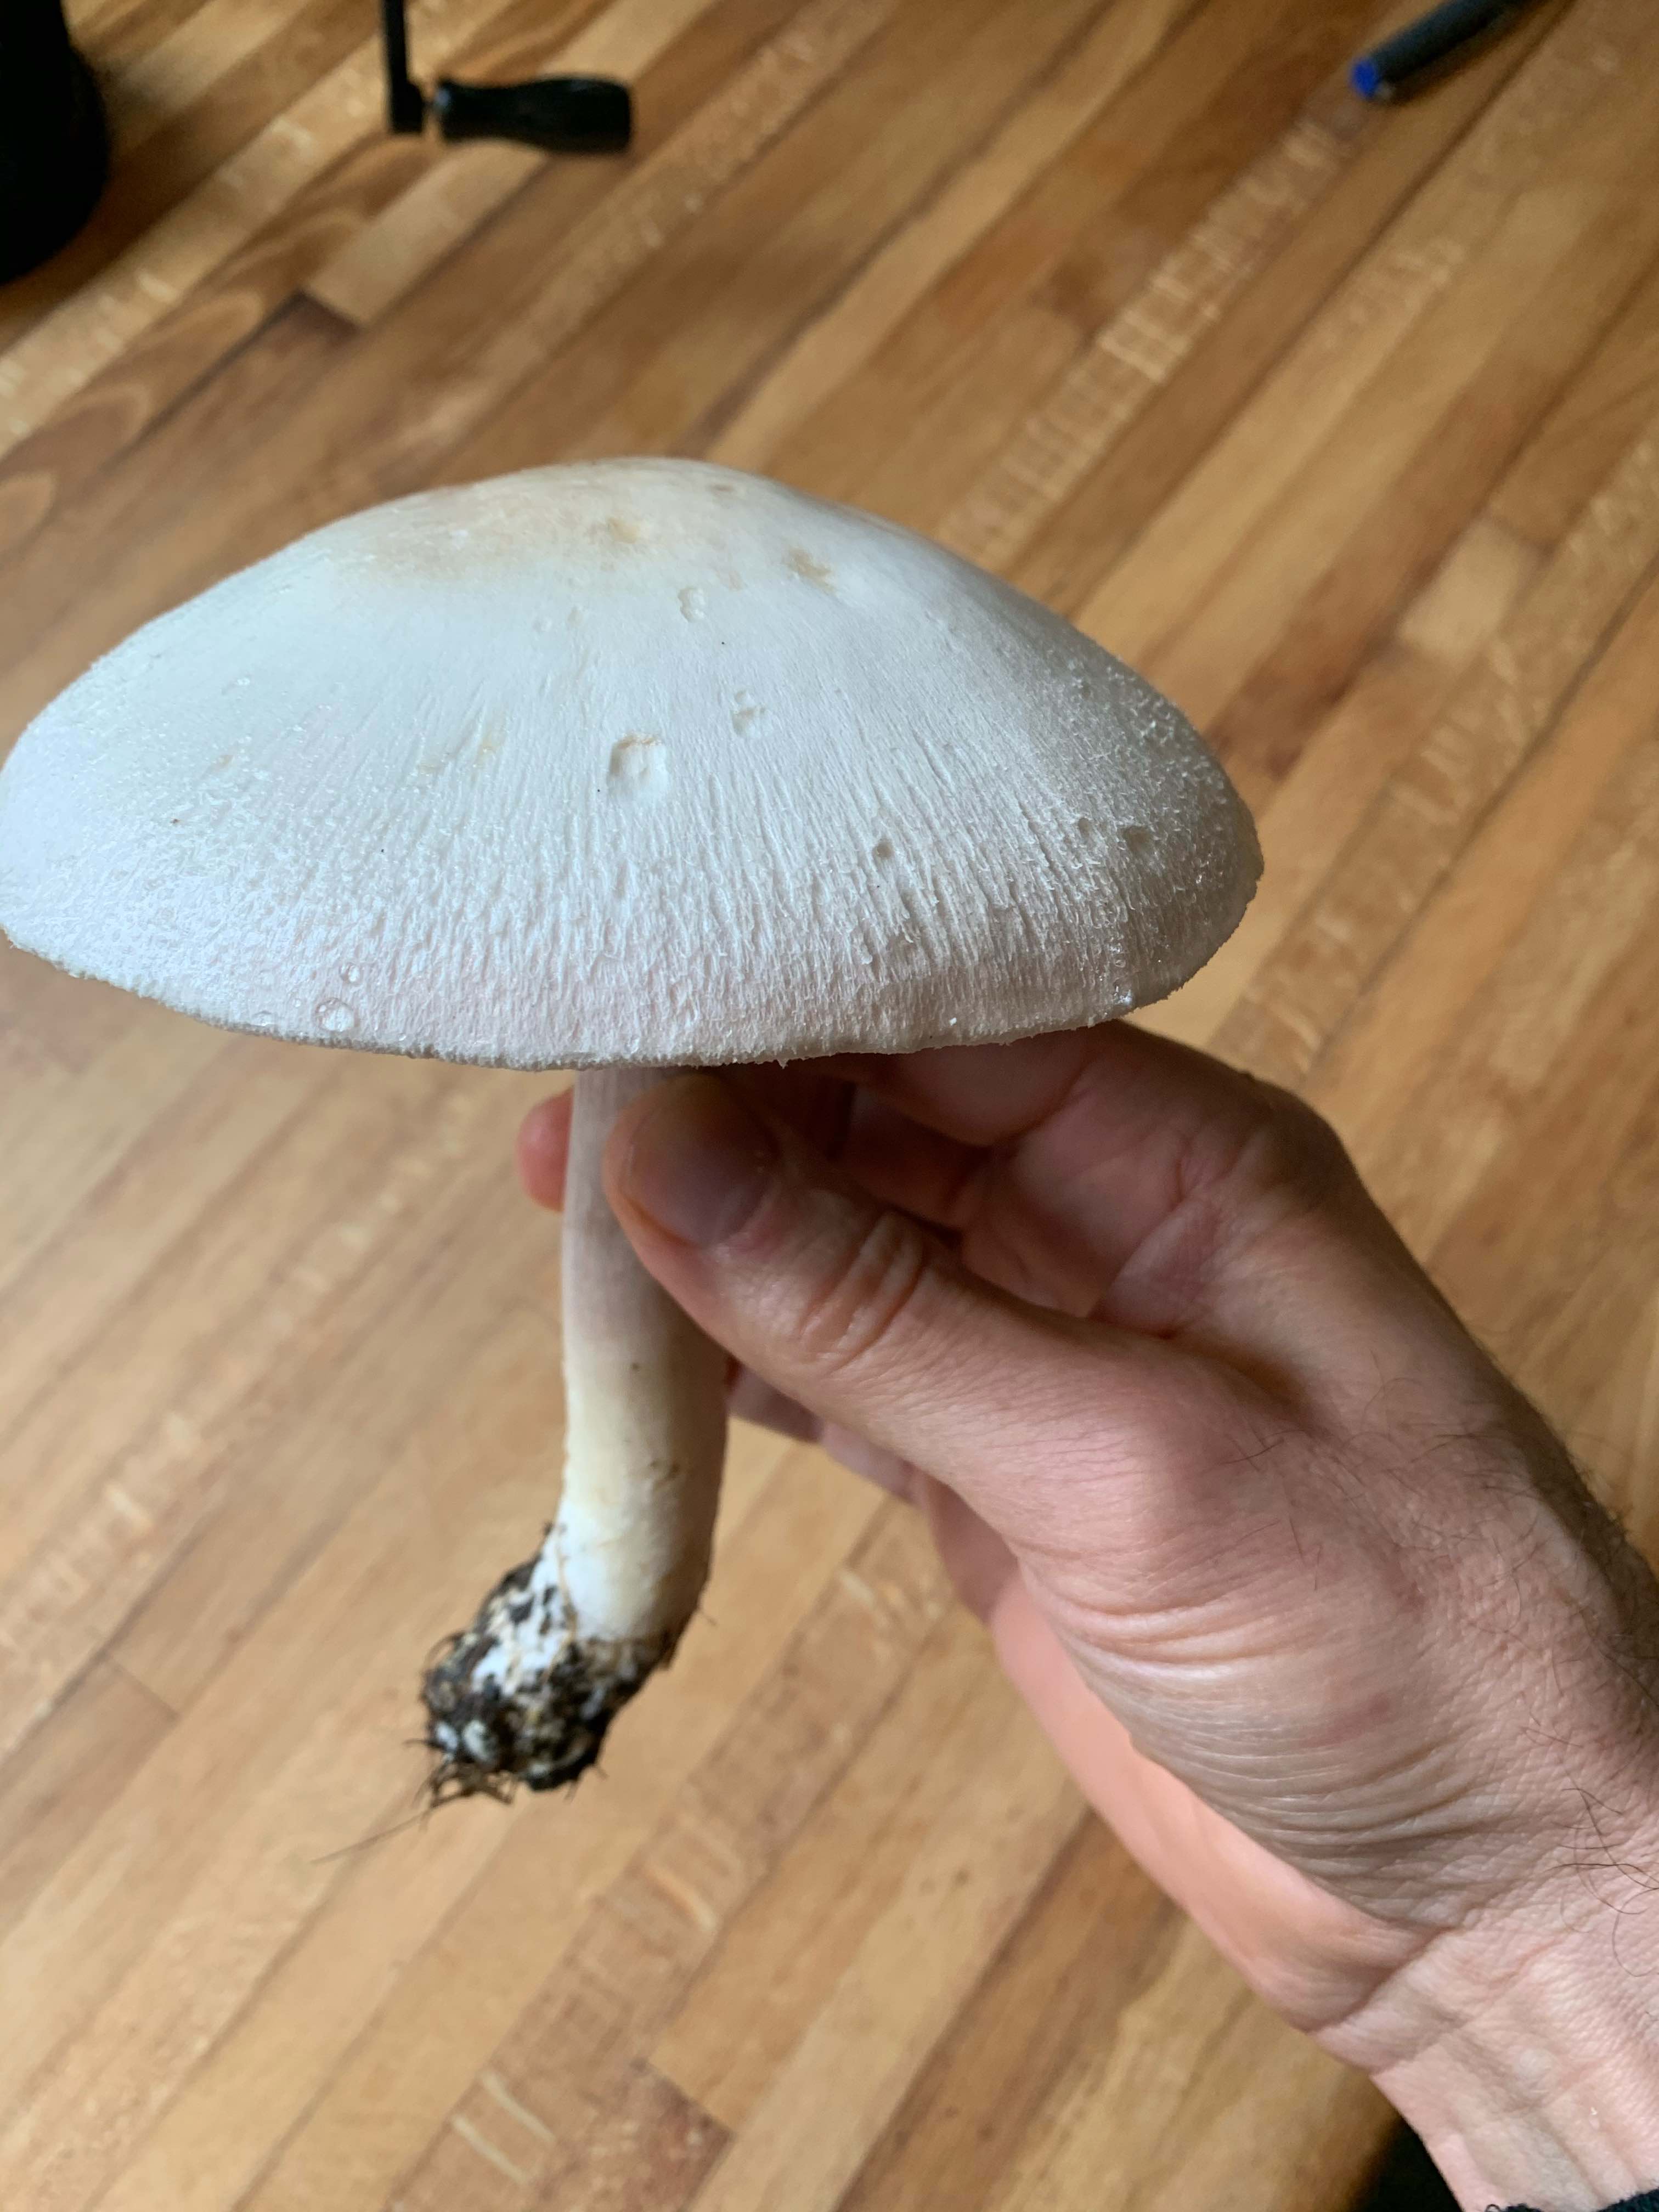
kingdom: Fungi
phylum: Basidiomycota
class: Agaricomycetes
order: Agaricales
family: Agaricaceae
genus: Agaricus
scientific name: Agaricus
